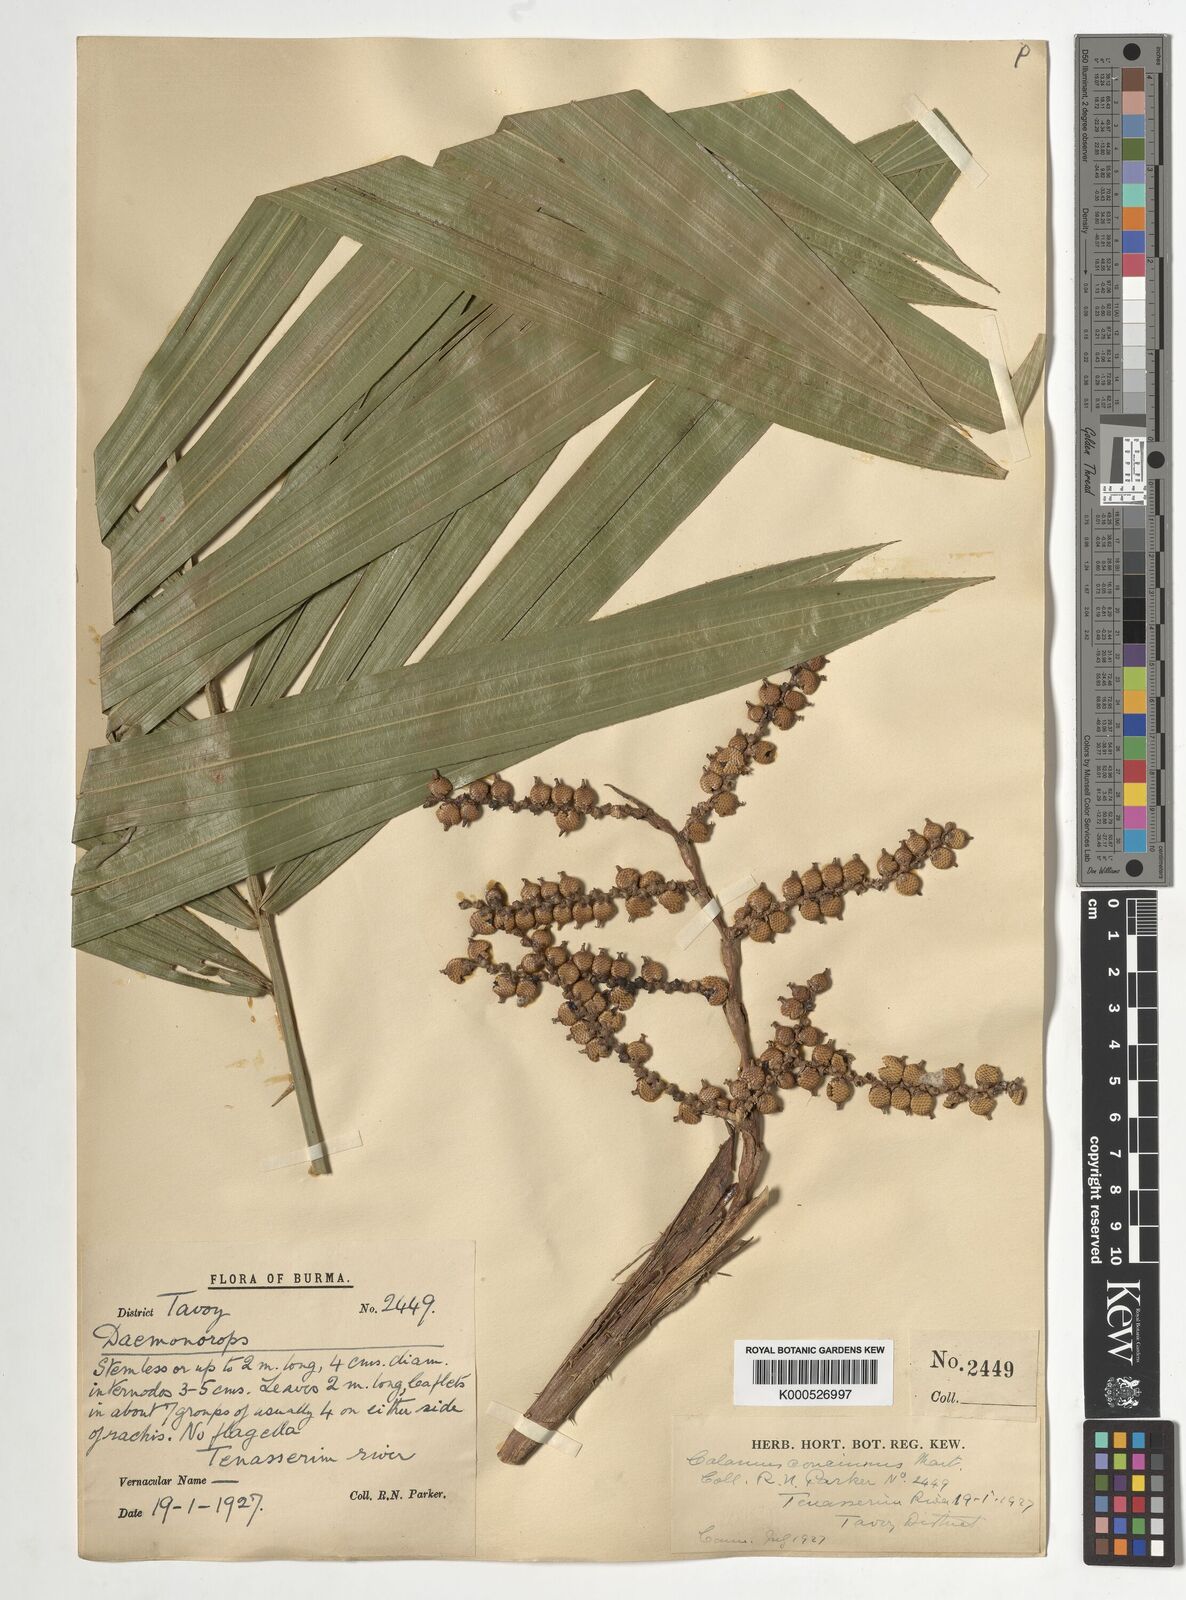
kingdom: Plantae
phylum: Tracheophyta
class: Liliopsida
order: Arecales
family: Arecaceae
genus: Calamus
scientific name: Calamus concinnus
